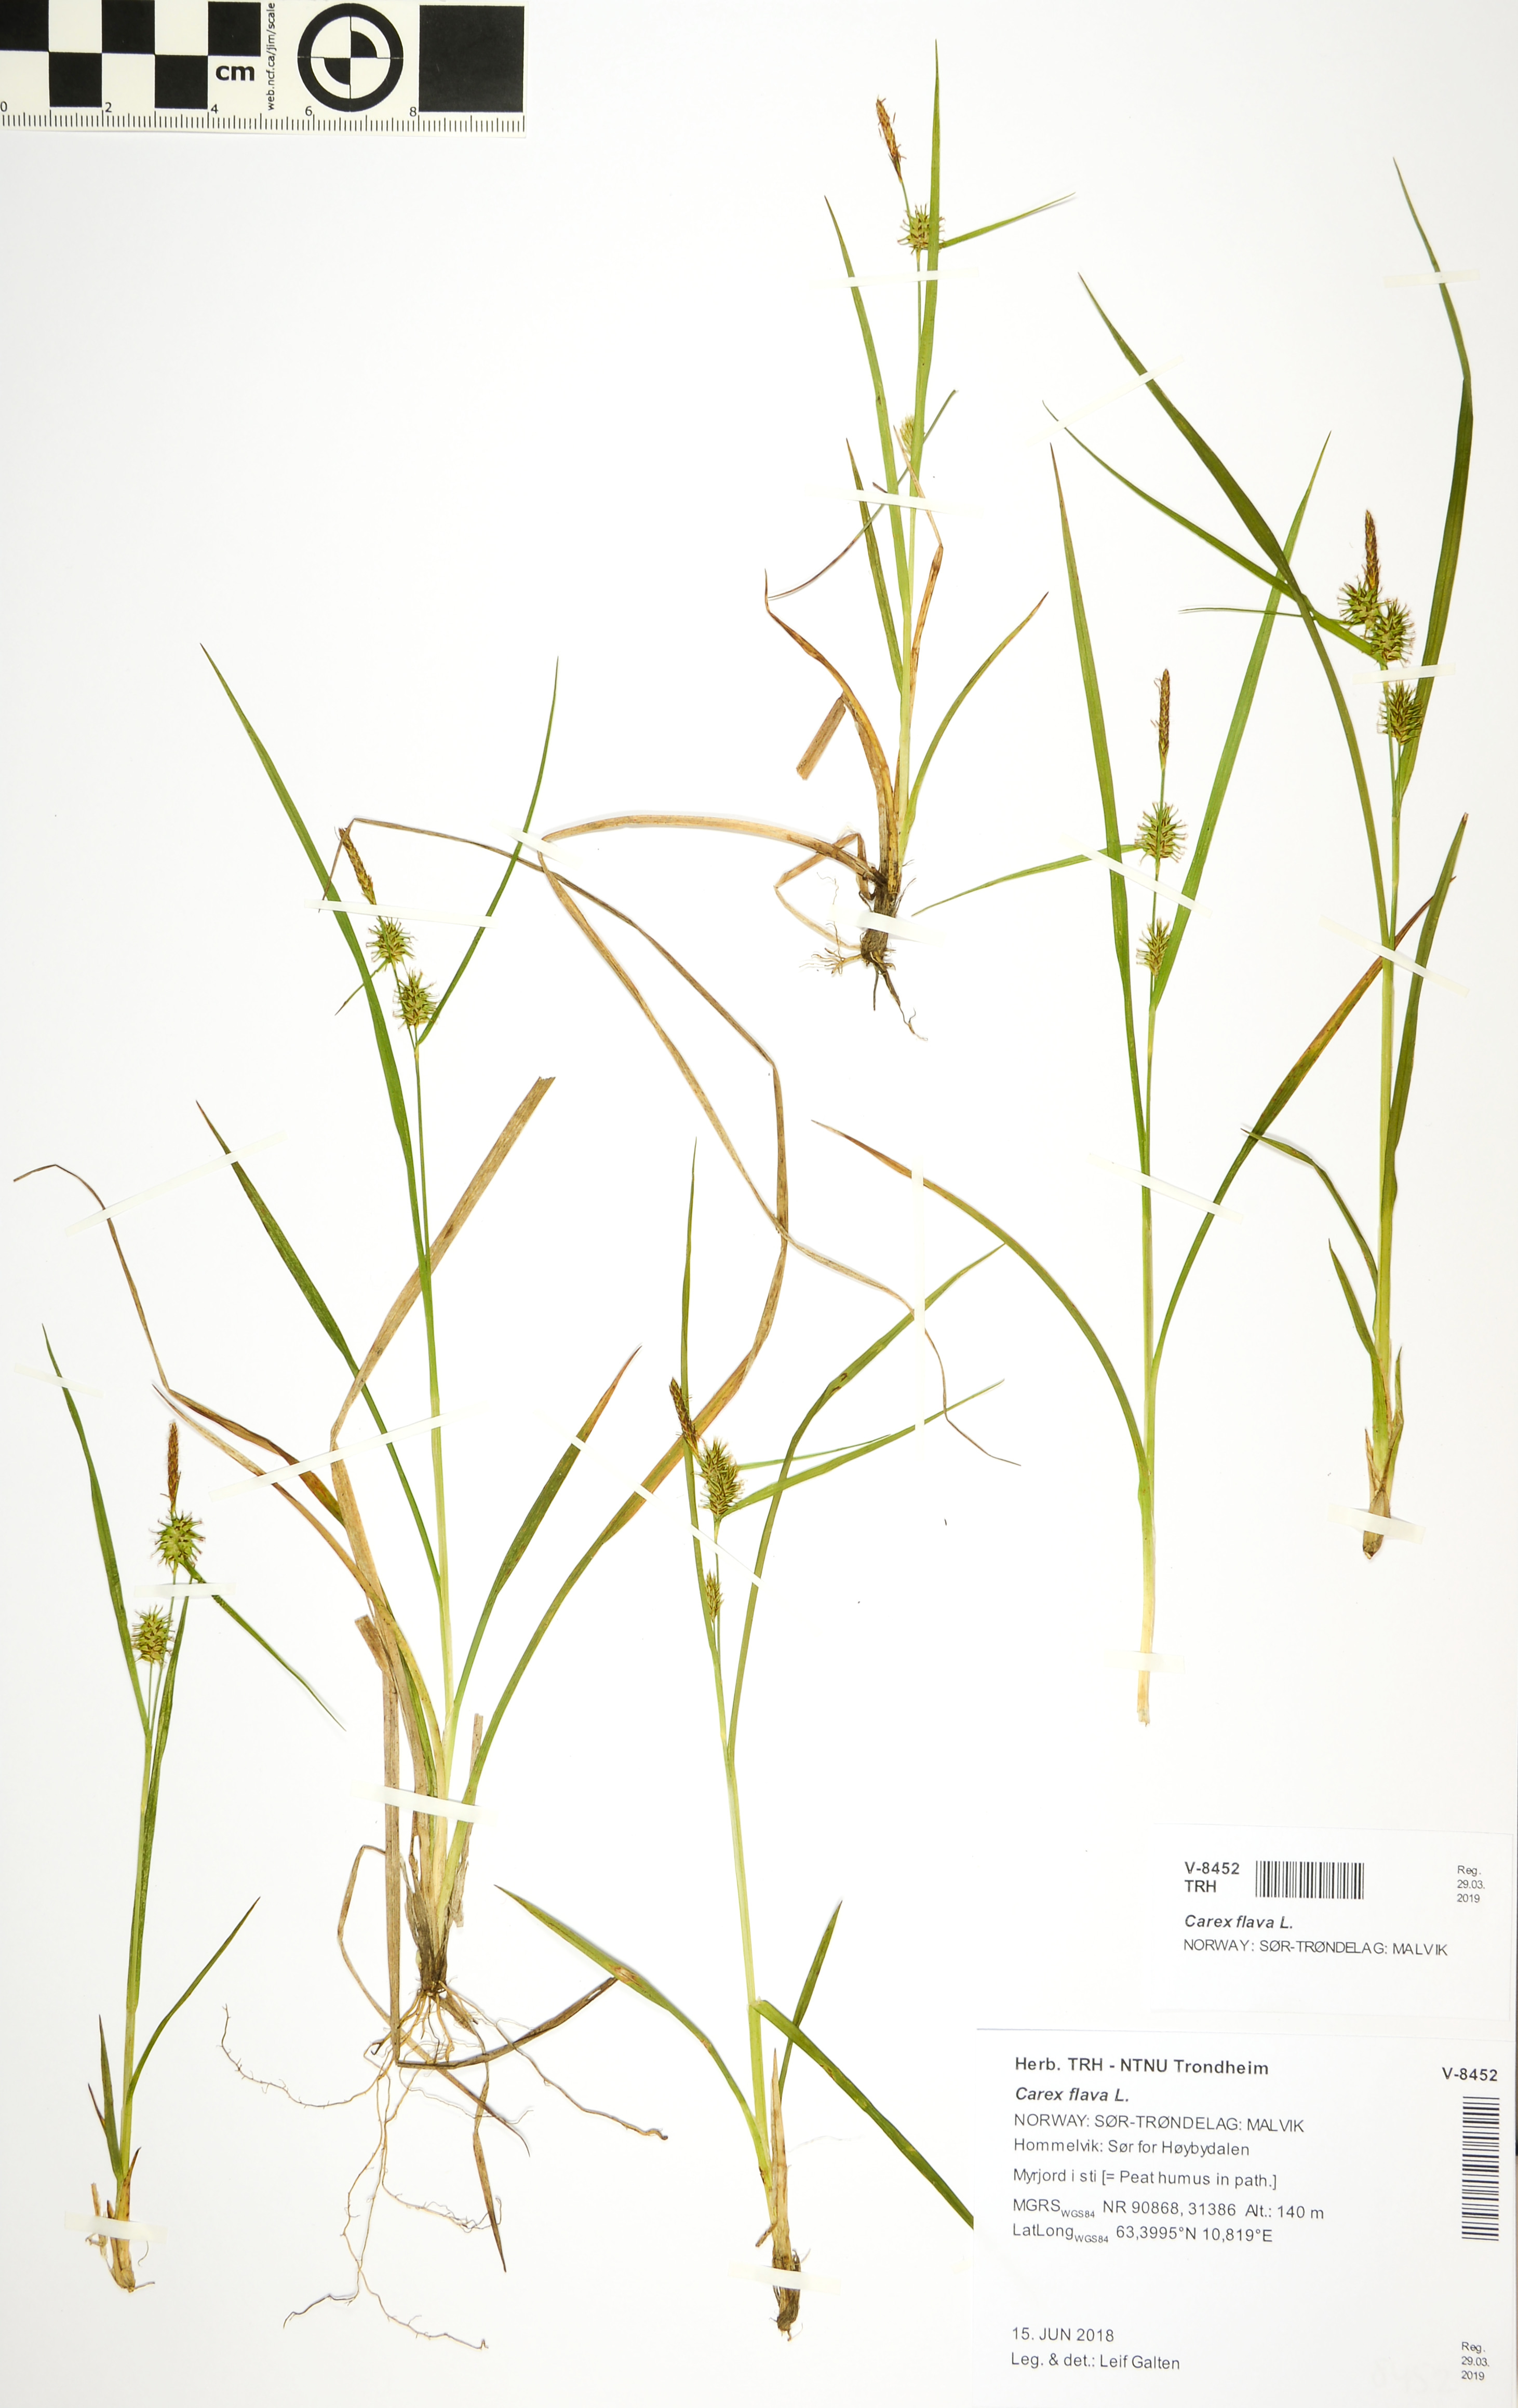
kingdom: Plantae
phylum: Tracheophyta
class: Liliopsida
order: Poales
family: Cyperaceae
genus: Carex
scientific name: Carex flava
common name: Large yellow-sedge
